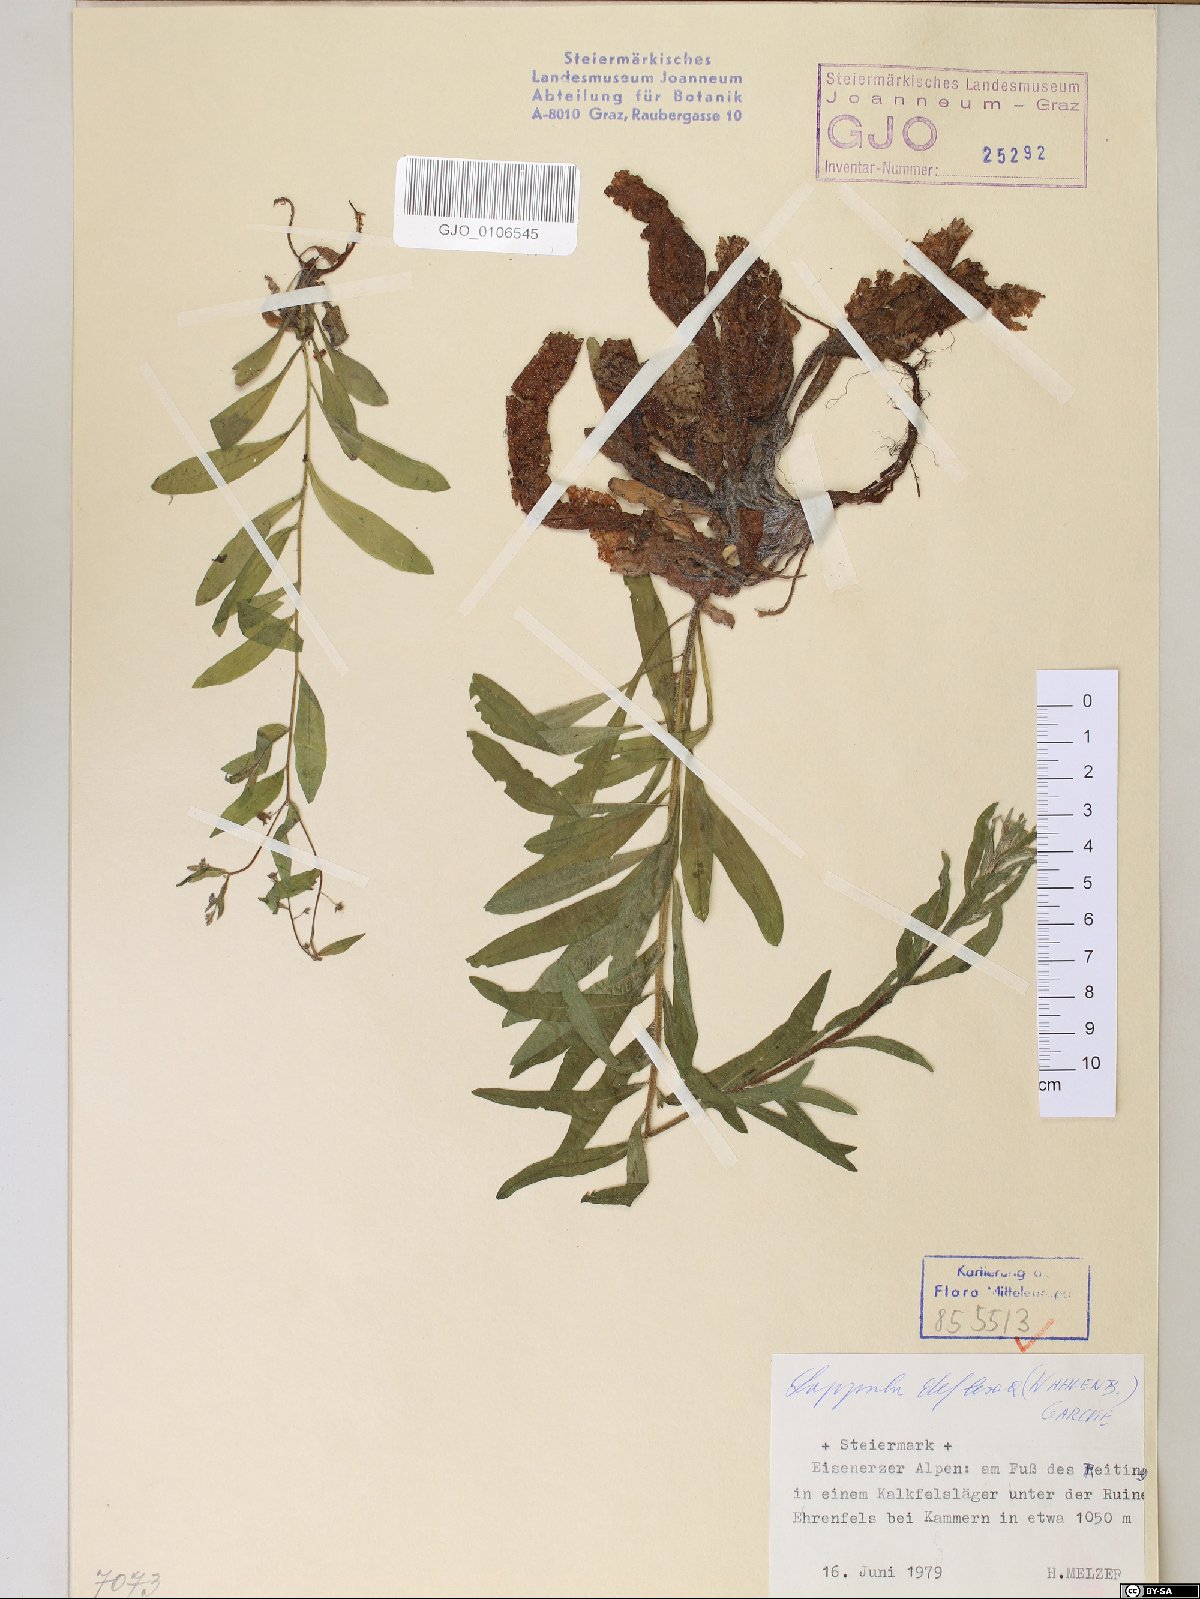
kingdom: Plantae
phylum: Tracheophyta
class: Magnoliopsida
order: Boraginales
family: Boraginaceae
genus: Hackelia
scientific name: Hackelia deflexa
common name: Nodding stickseed
